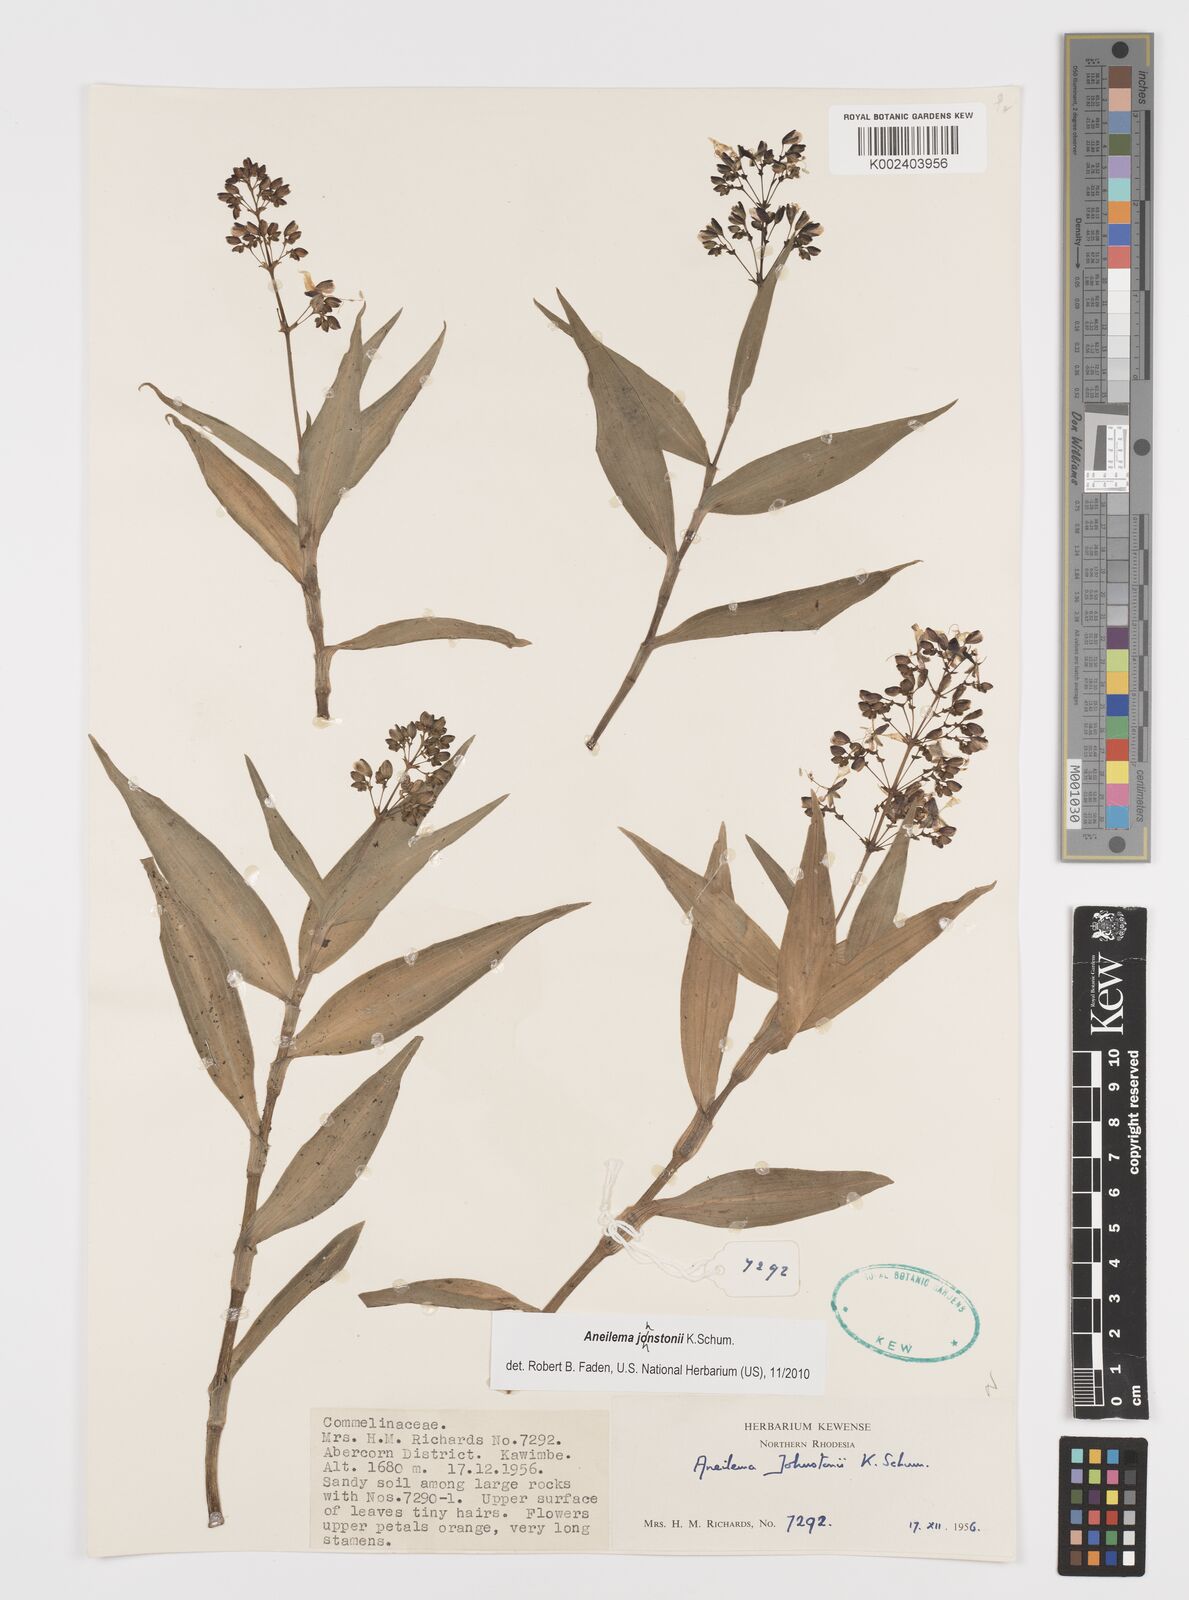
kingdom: Plantae
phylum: Tracheophyta
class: Liliopsida
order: Commelinales
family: Commelinaceae
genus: Aneilema
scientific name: Aneilema johnstonii
